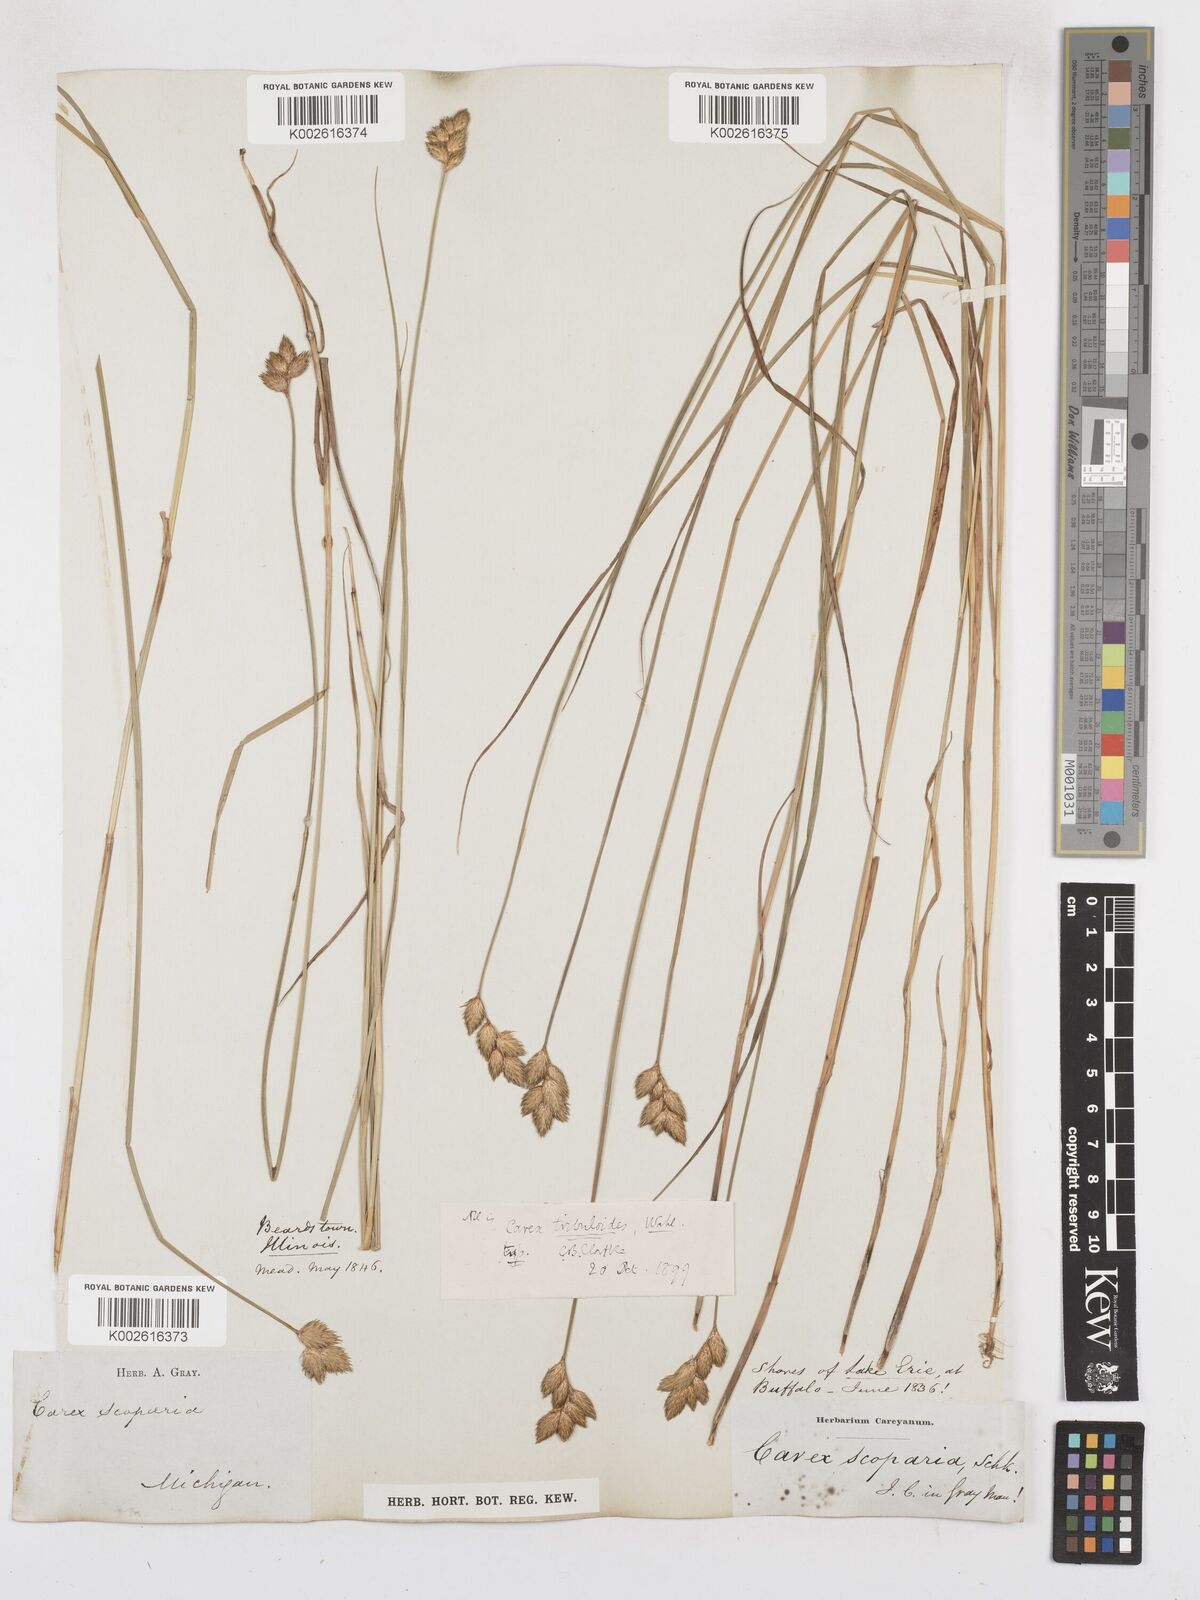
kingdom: Plantae
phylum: Tracheophyta
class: Liliopsida
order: Poales
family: Cyperaceae
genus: Carex
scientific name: Carex tribuloides
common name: Blunt broom sedge
